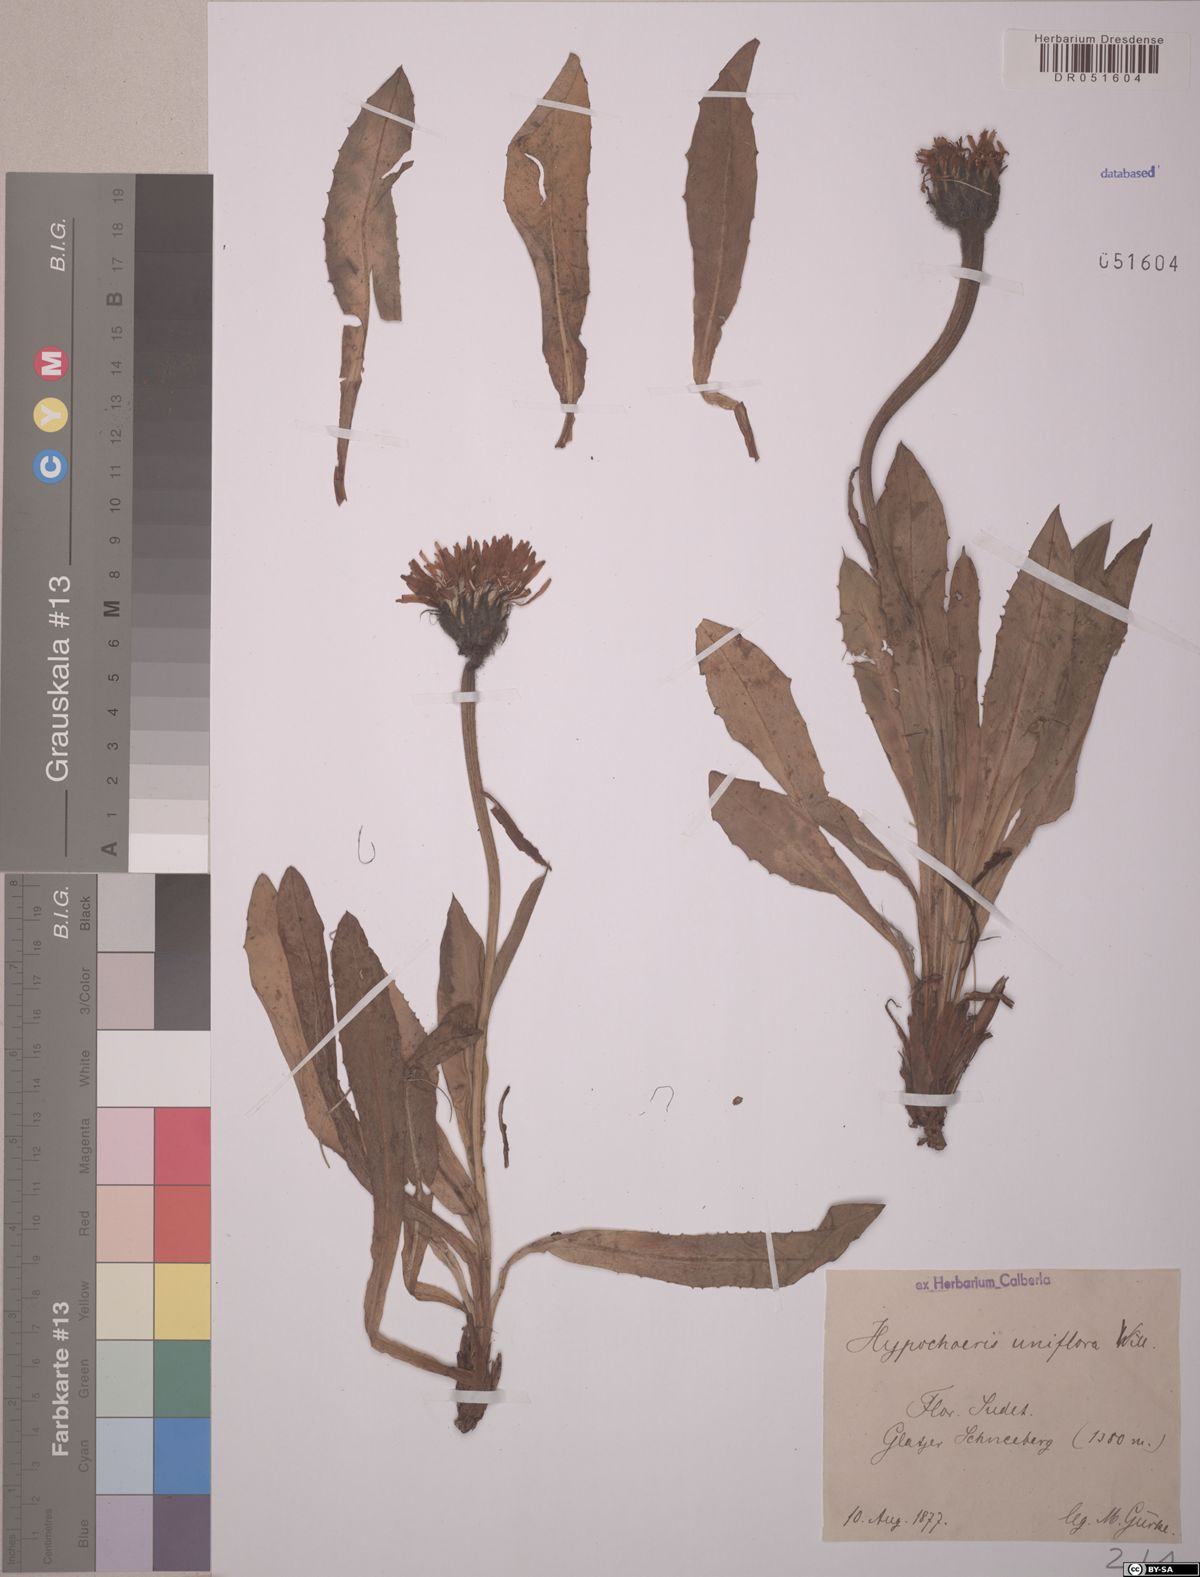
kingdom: Plantae
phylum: Tracheophyta
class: Magnoliopsida
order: Asterales
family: Asteraceae
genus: Trommsdorffia
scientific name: Trommsdorffia uniflora
